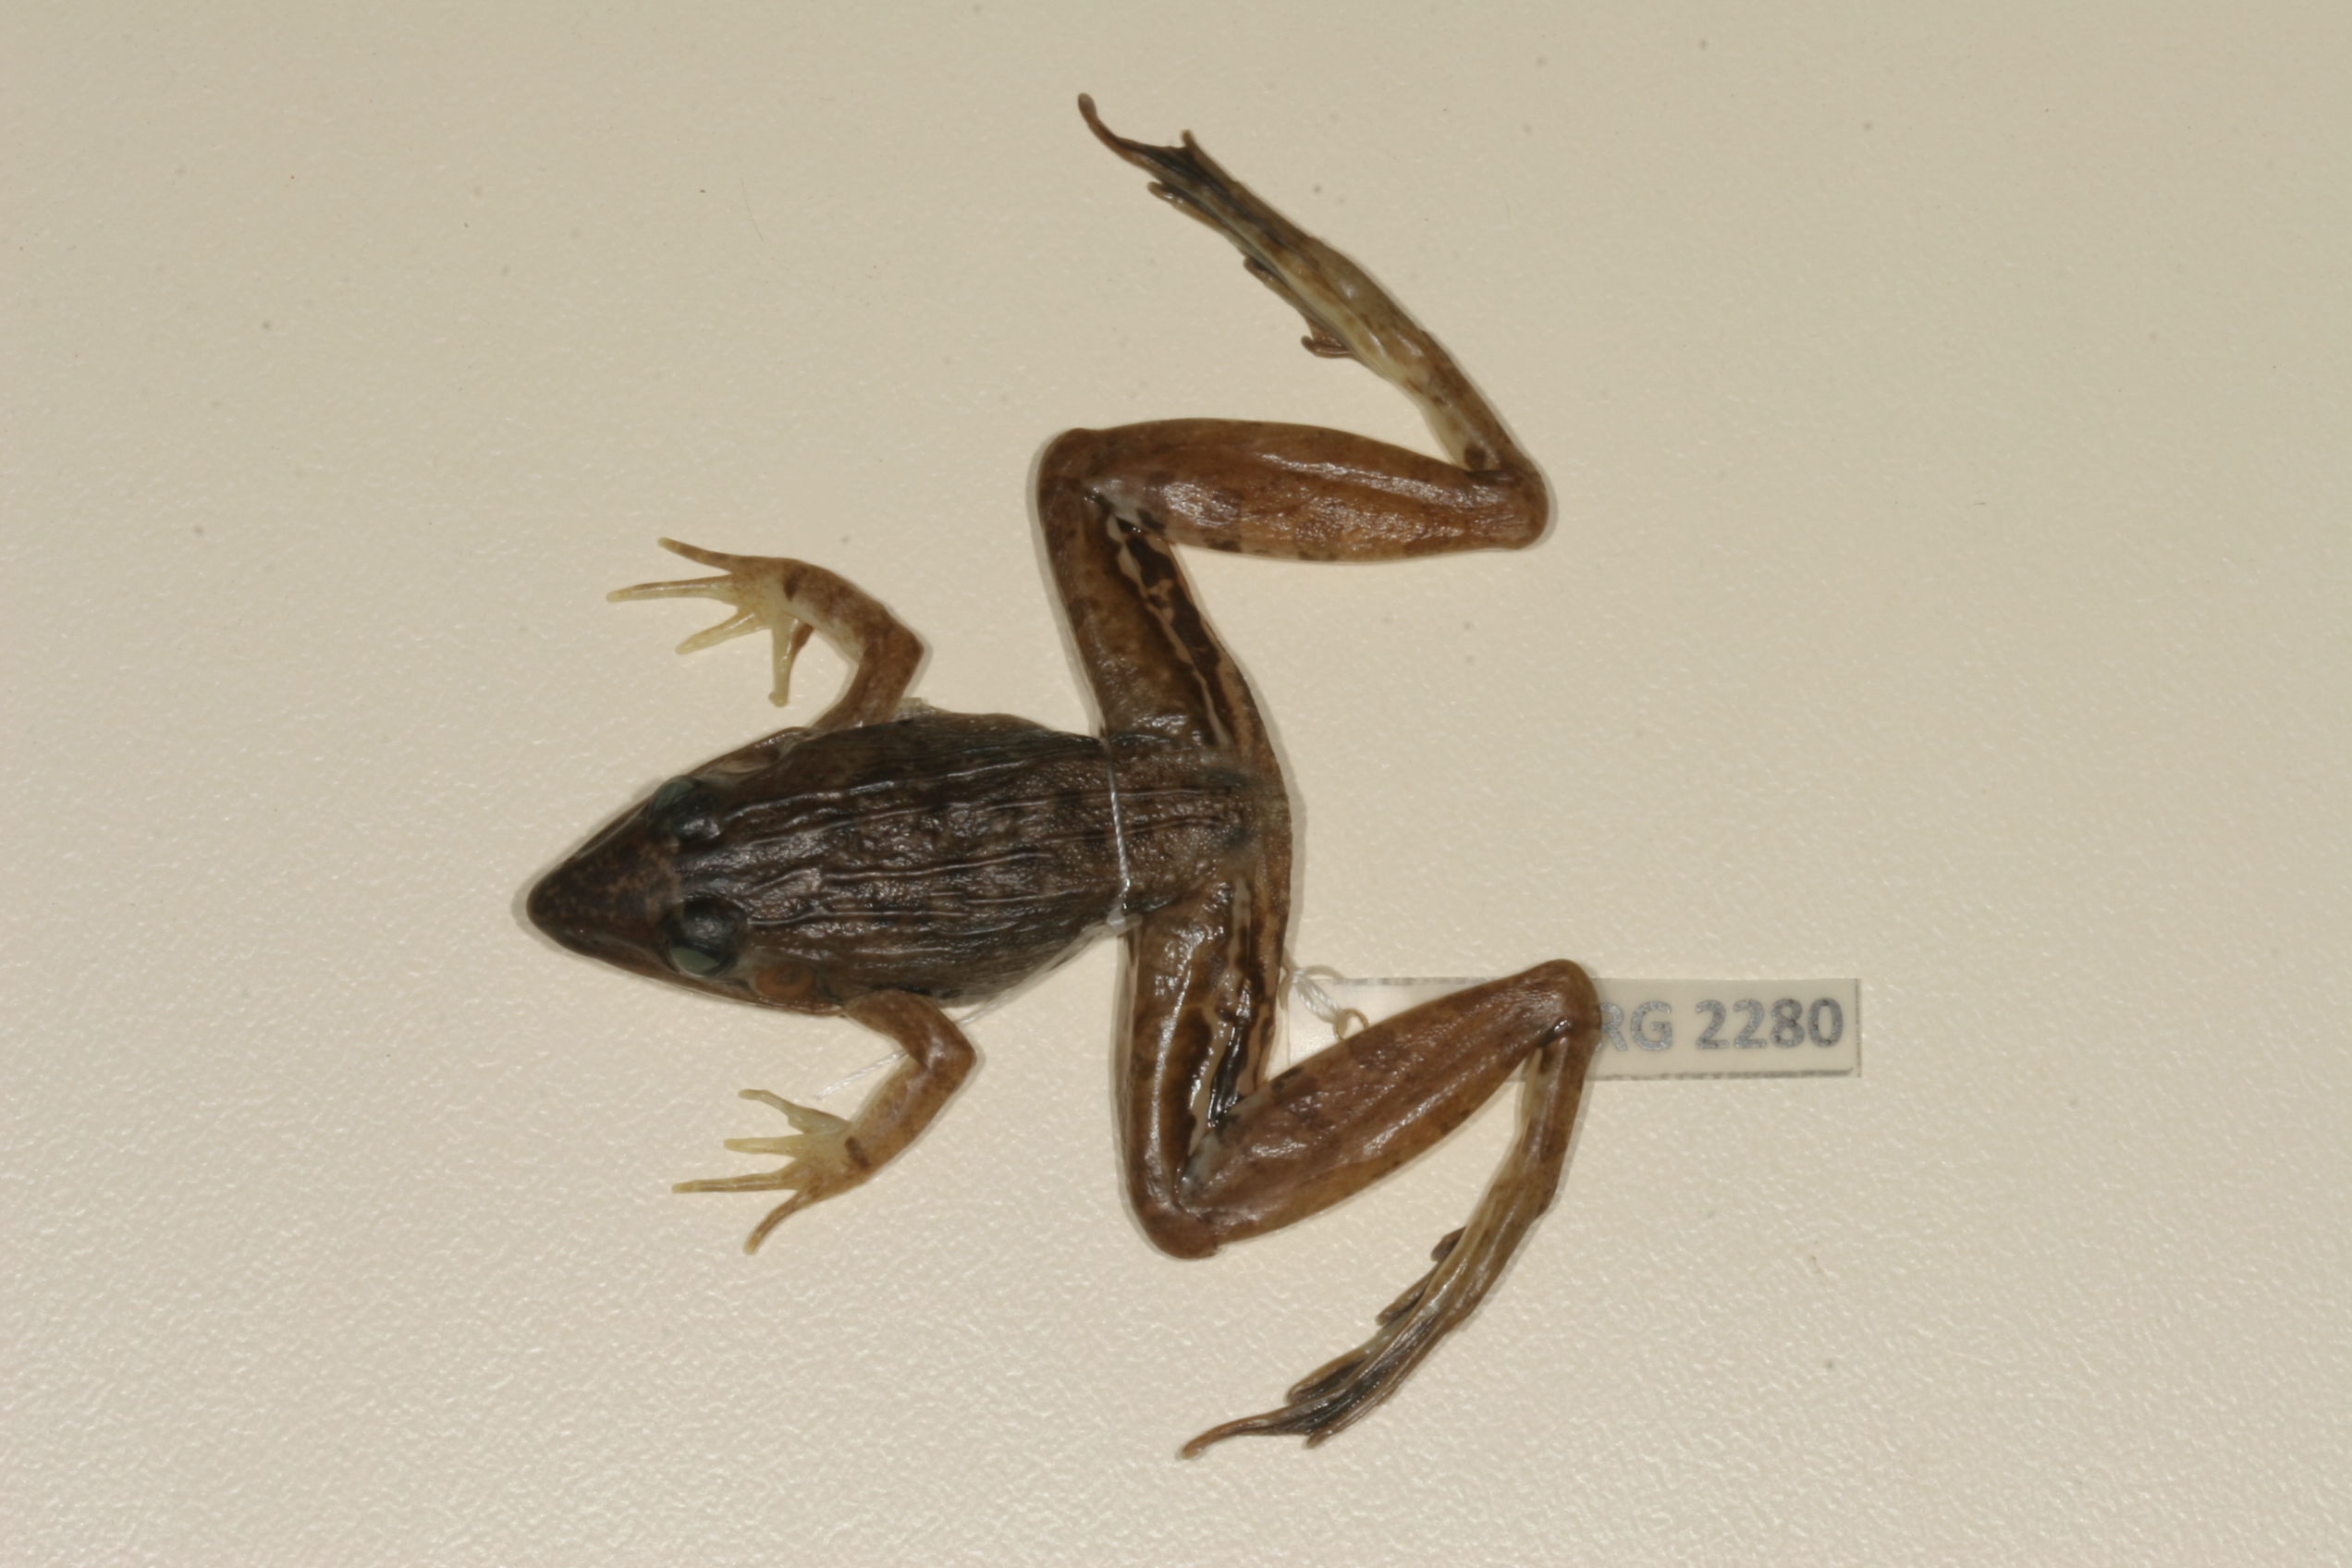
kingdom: Animalia
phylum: Chordata
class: Amphibia
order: Anura
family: Ptychadenidae
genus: Ptychadena
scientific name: Ptychadena mascareniensis
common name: Mascarene grass frog
